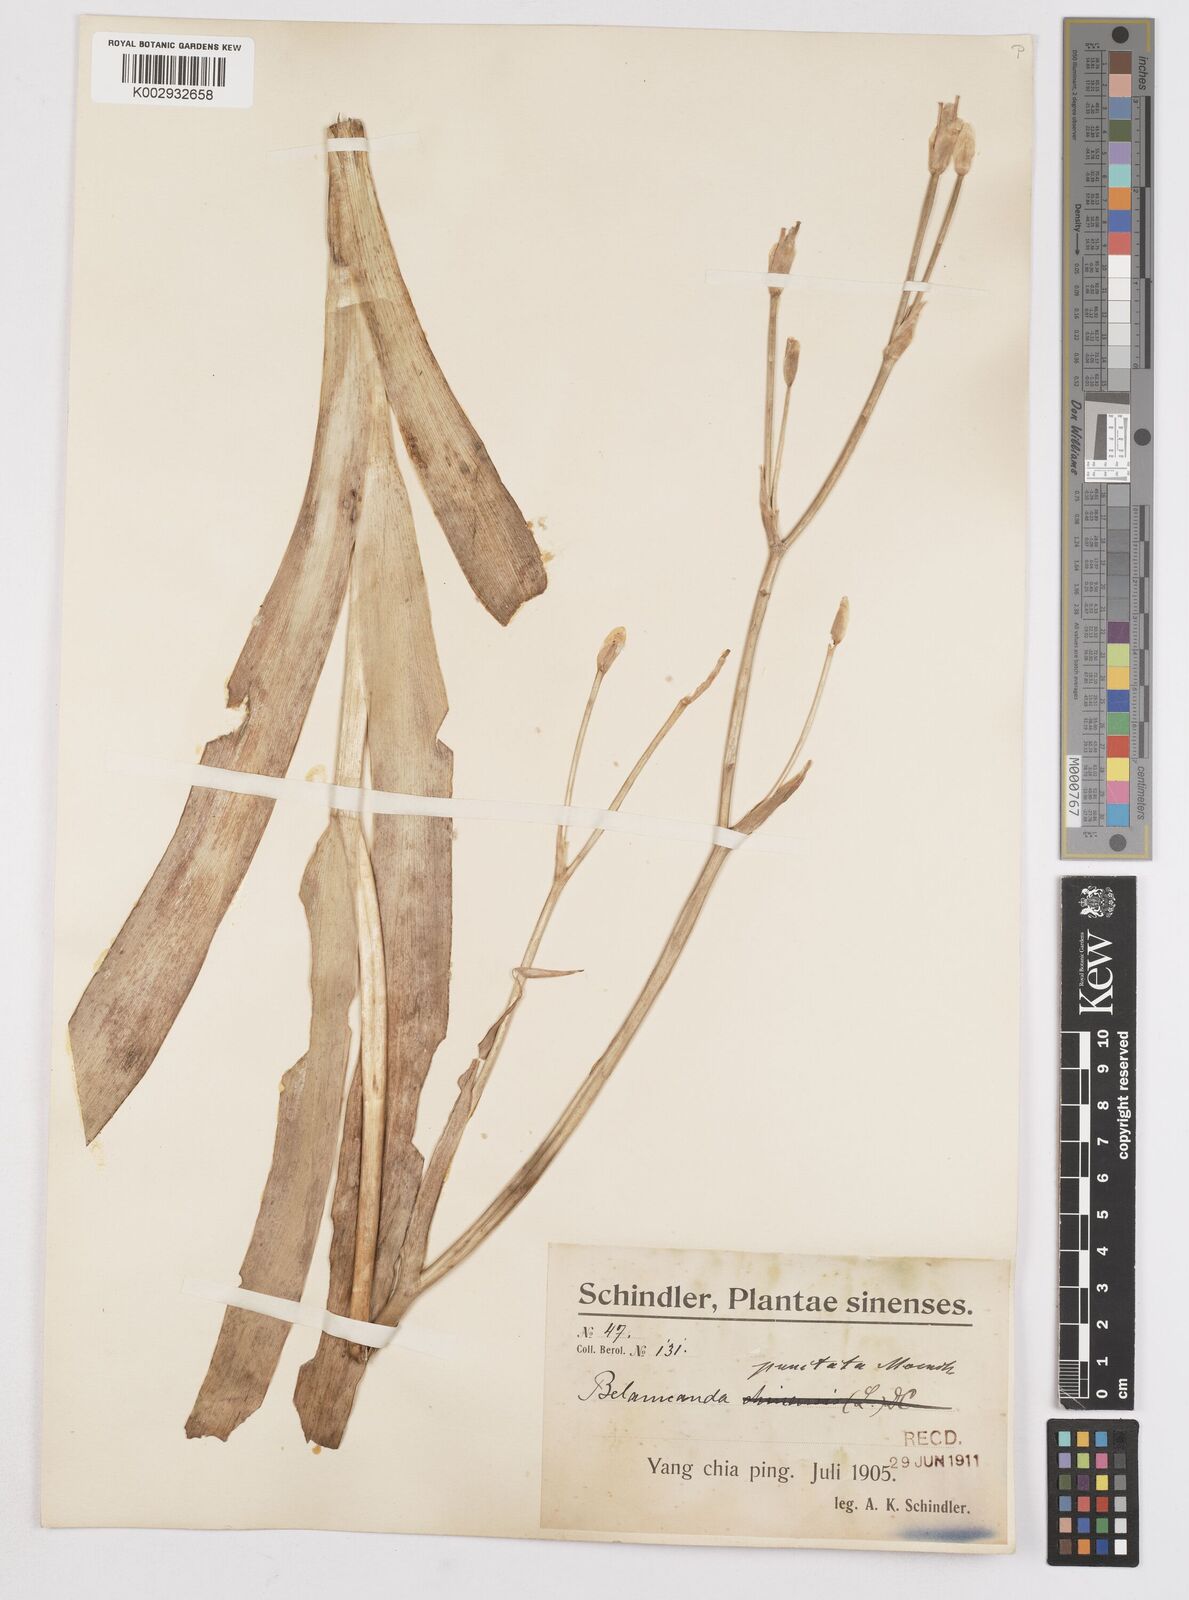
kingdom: Plantae
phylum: Tracheophyta
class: Liliopsida
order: Asparagales
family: Iridaceae
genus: Iris
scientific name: Iris
